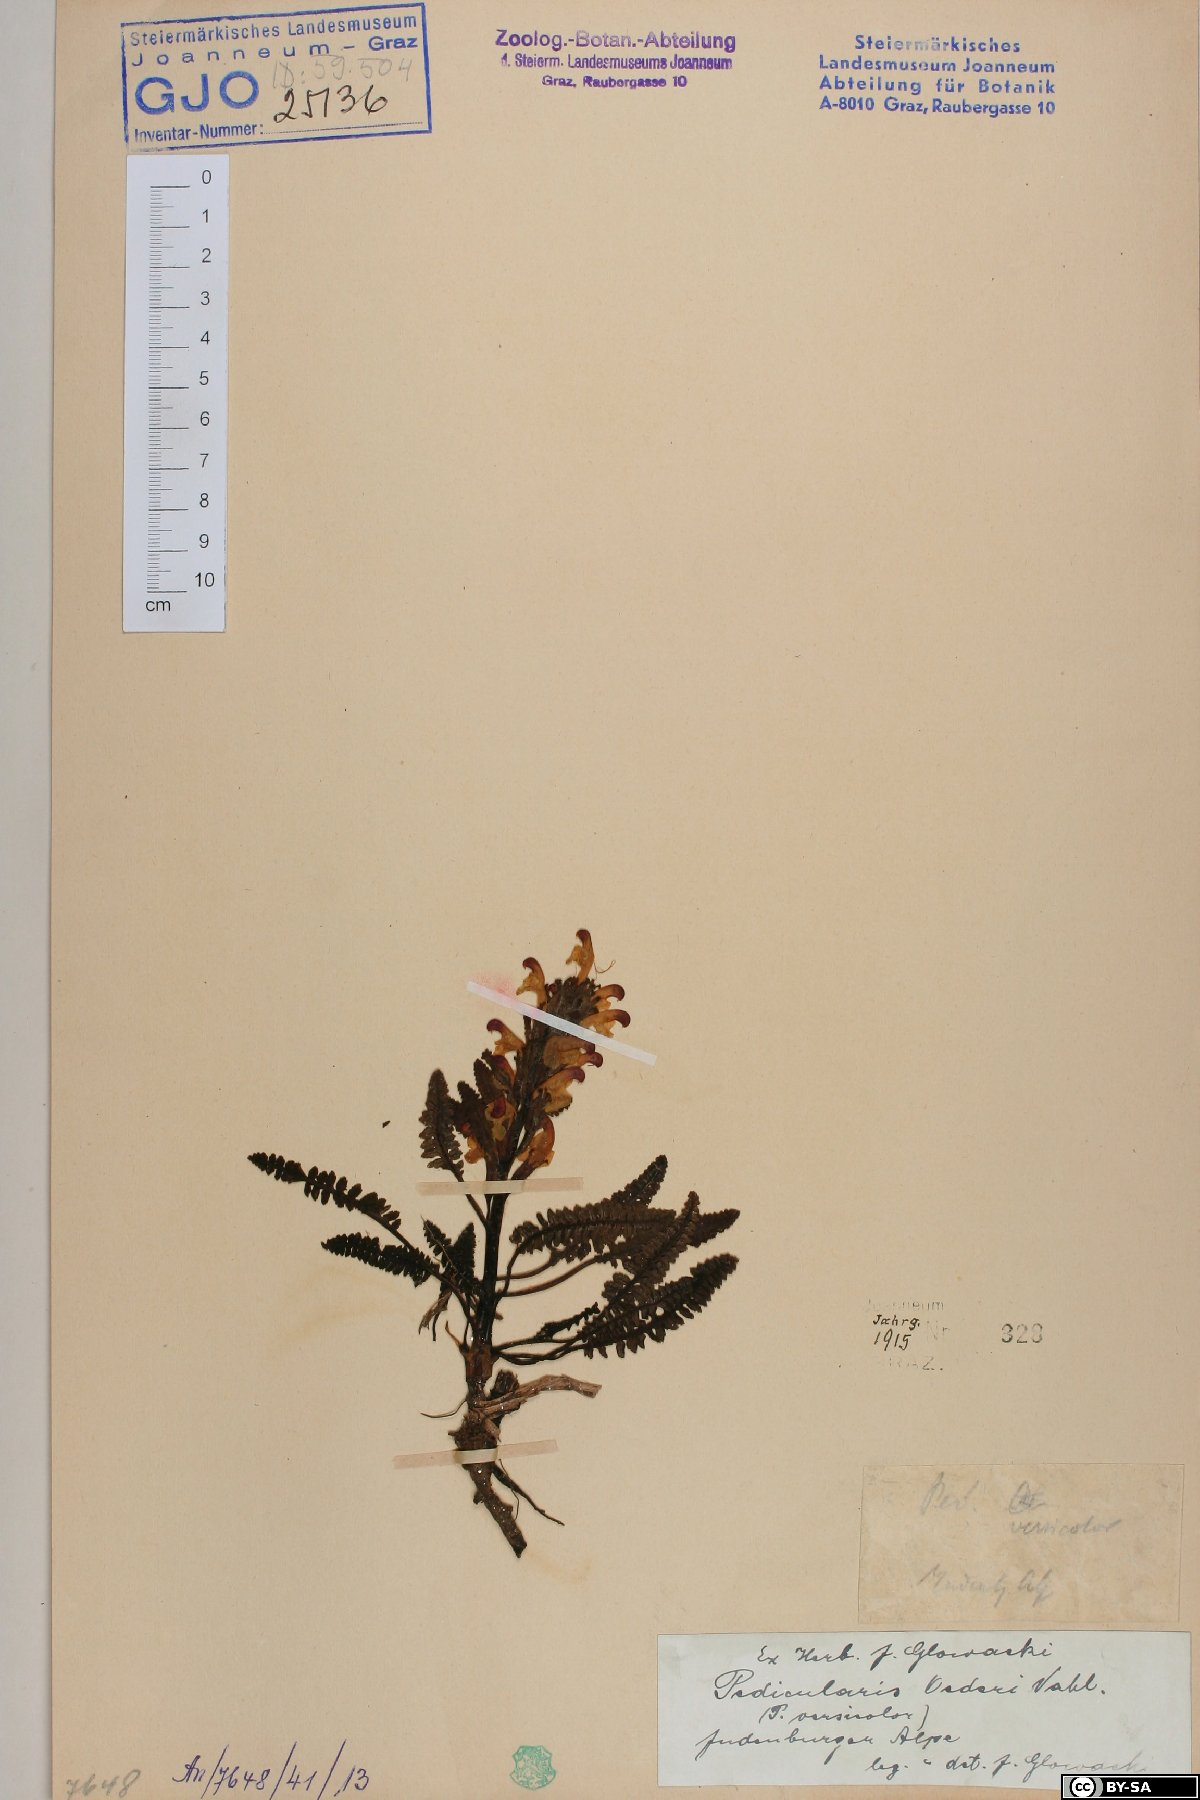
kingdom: Plantae
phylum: Tracheophyta
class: Magnoliopsida
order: Lamiales
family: Orobanchaceae
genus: Pedicularis
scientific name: Pedicularis oederi
